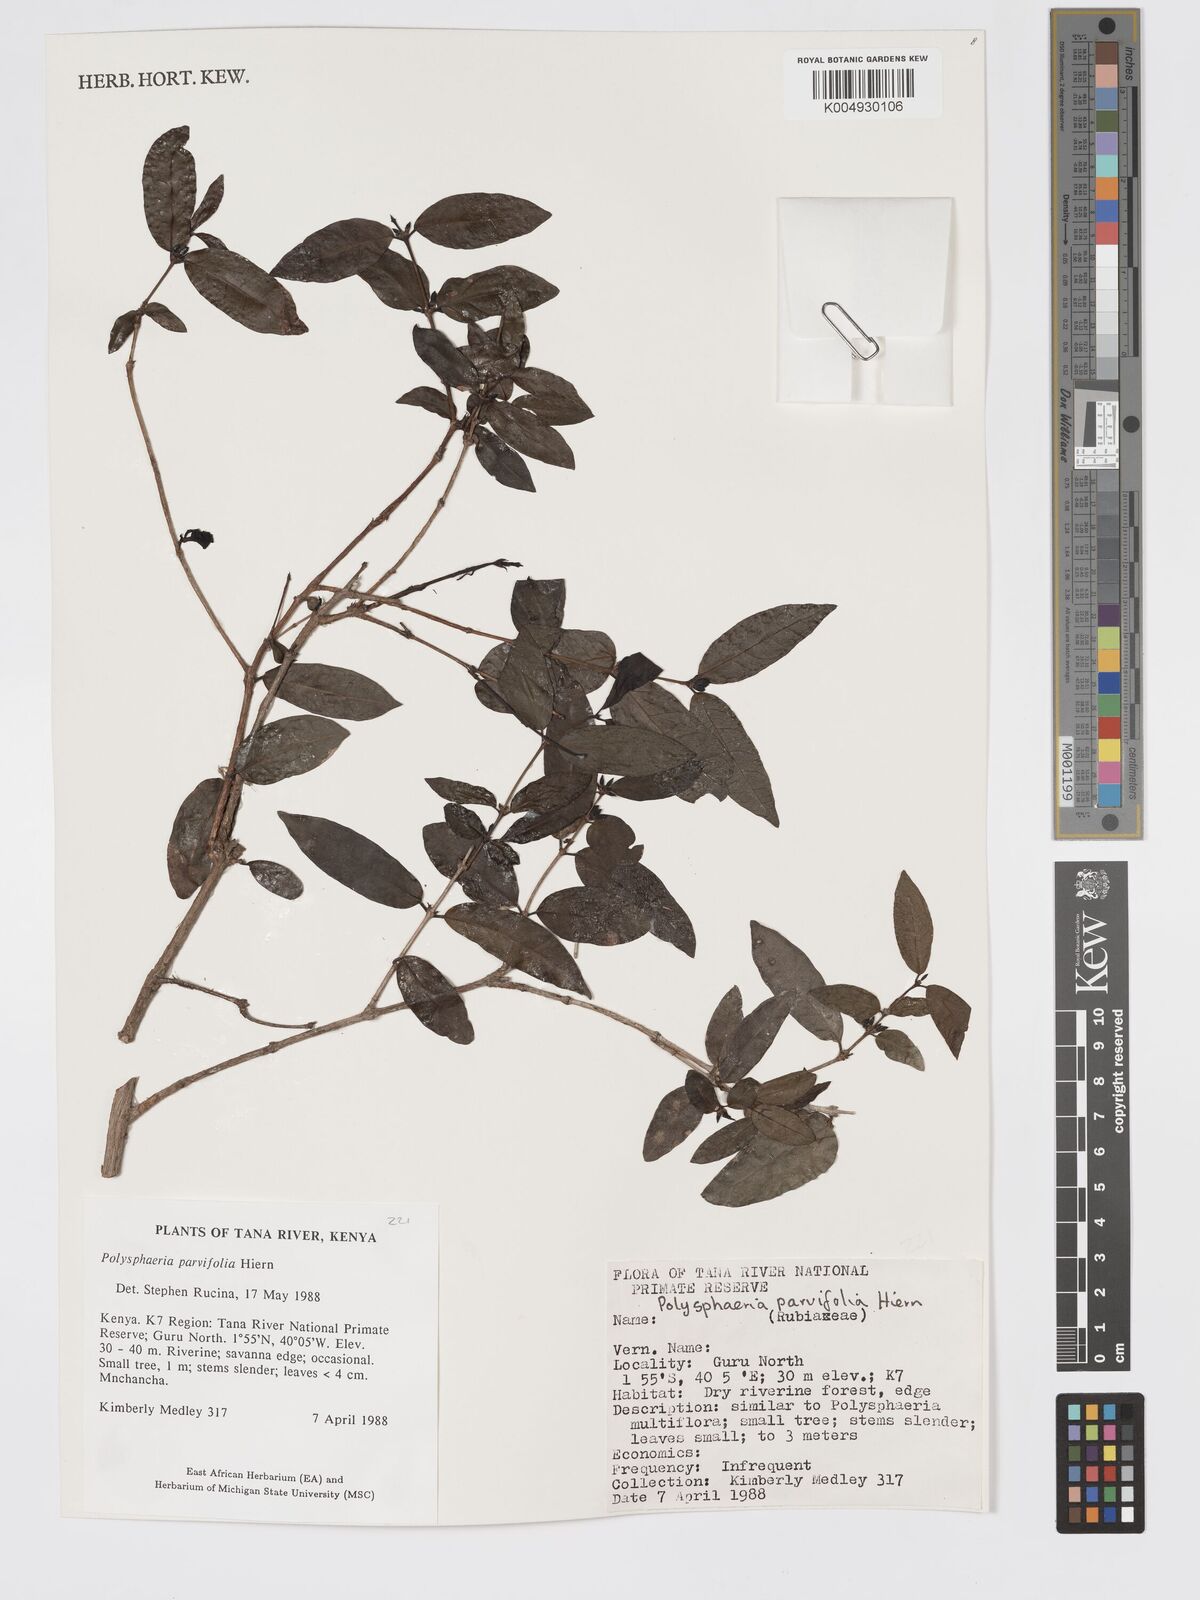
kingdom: Plantae
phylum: Tracheophyta
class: Magnoliopsida
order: Gentianales
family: Rubiaceae
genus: Polysphaeria
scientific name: Polysphaeria parvifolia
